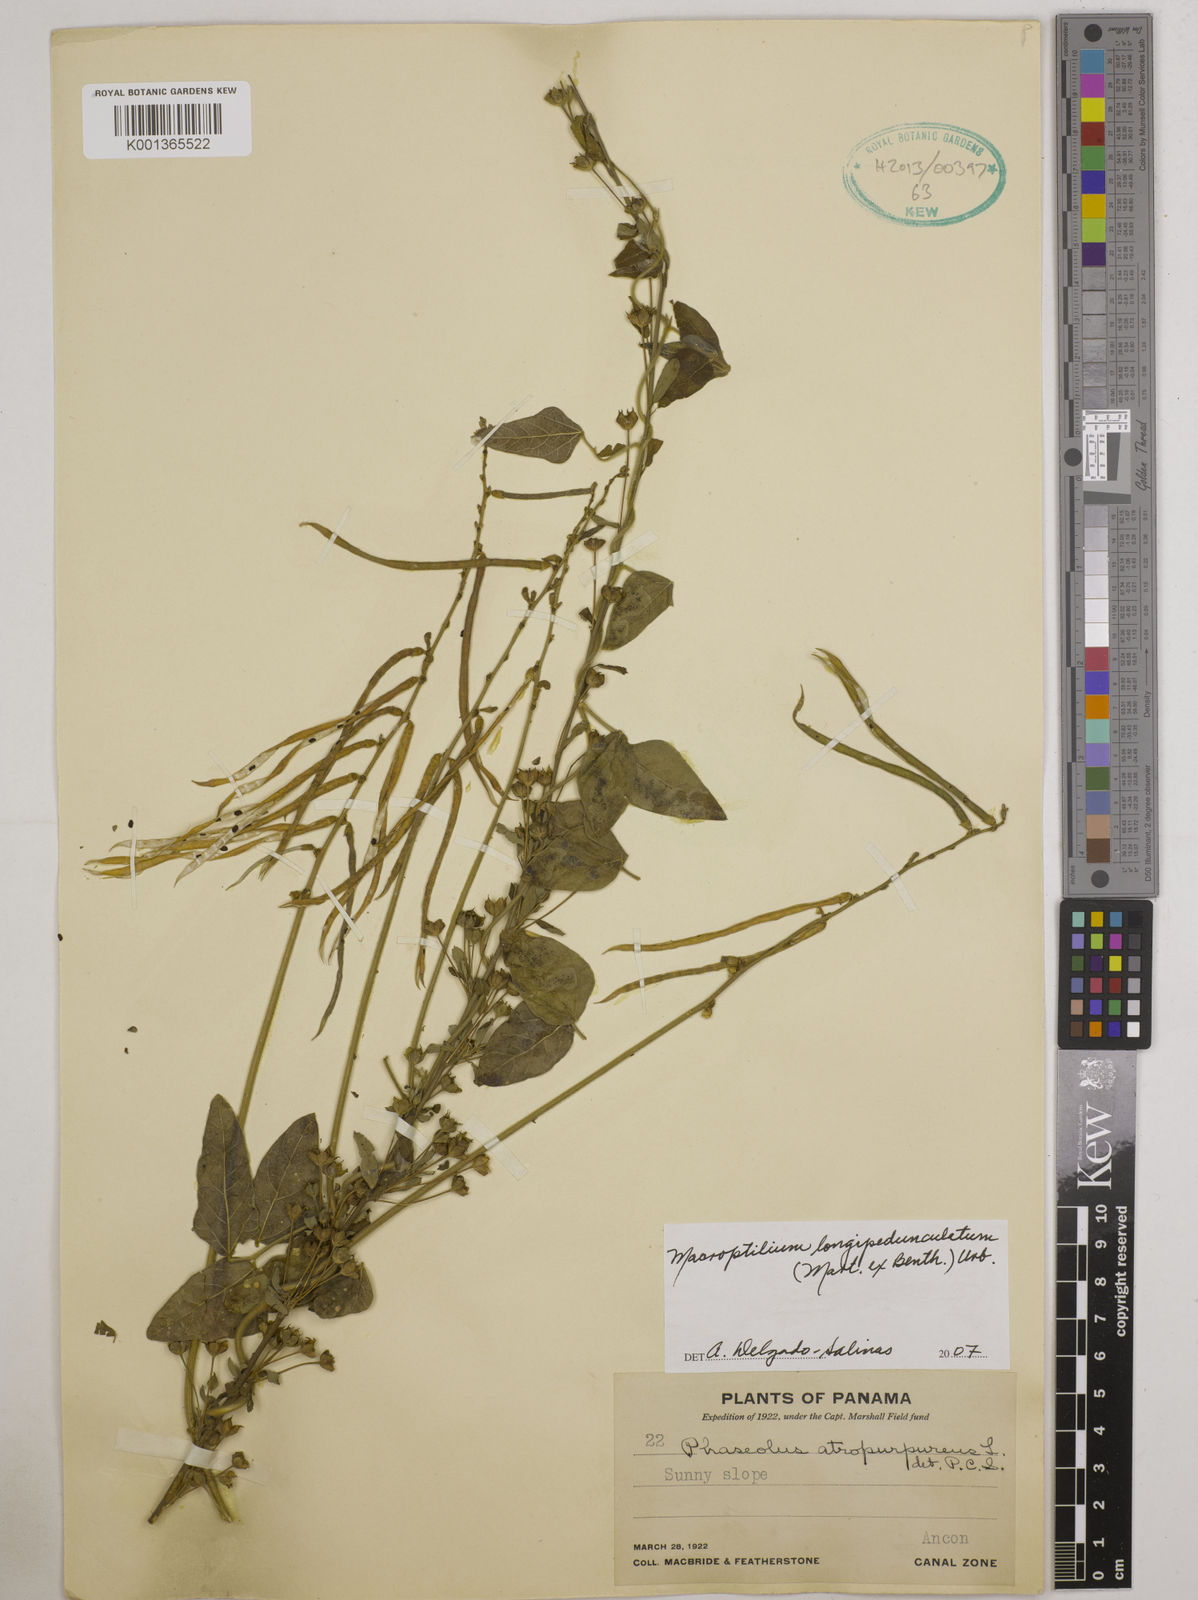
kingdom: Plantae
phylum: Tracheophyta
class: Magnoliopsida
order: Fabales
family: Fabaceae
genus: Macroptilium
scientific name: Macroptilium longepedunculatum
